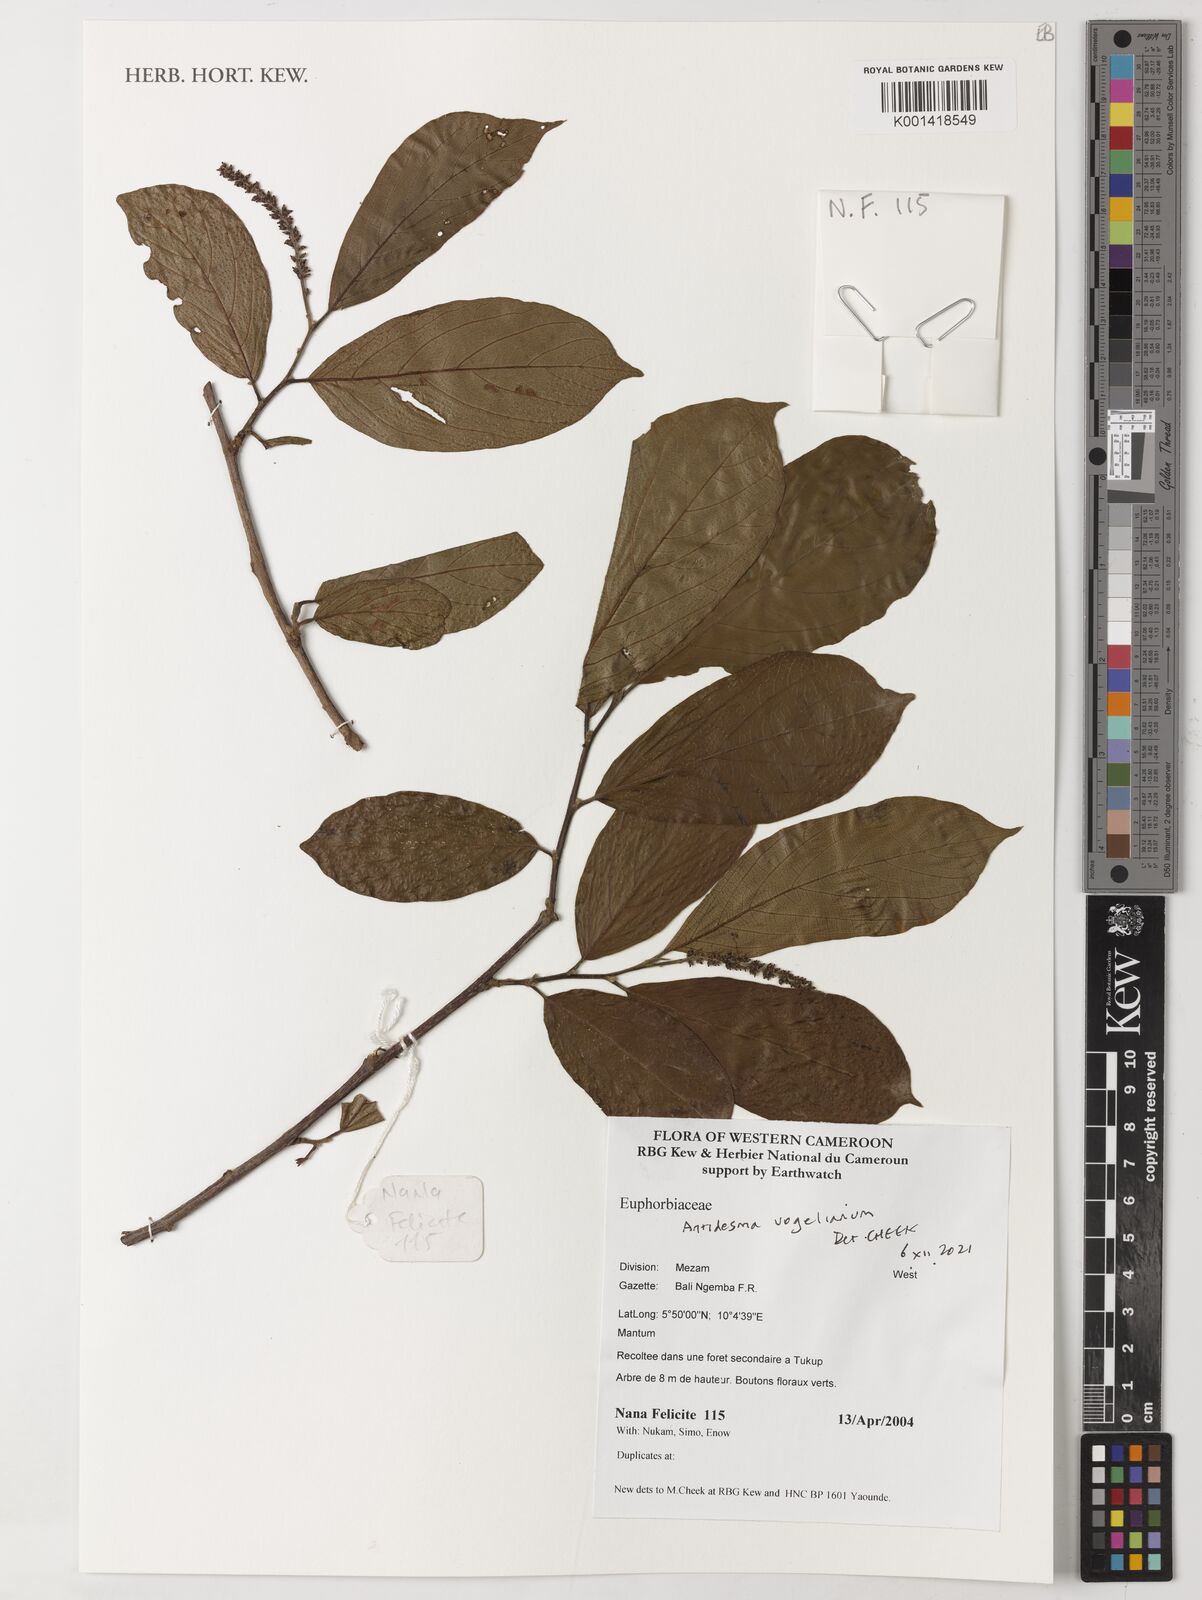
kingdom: Plantae
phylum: Tracheophyta
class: Magnoliopsida
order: Malpighiales
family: Phyllanthaceae
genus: Antidesma
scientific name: Antidesma vogelianum
